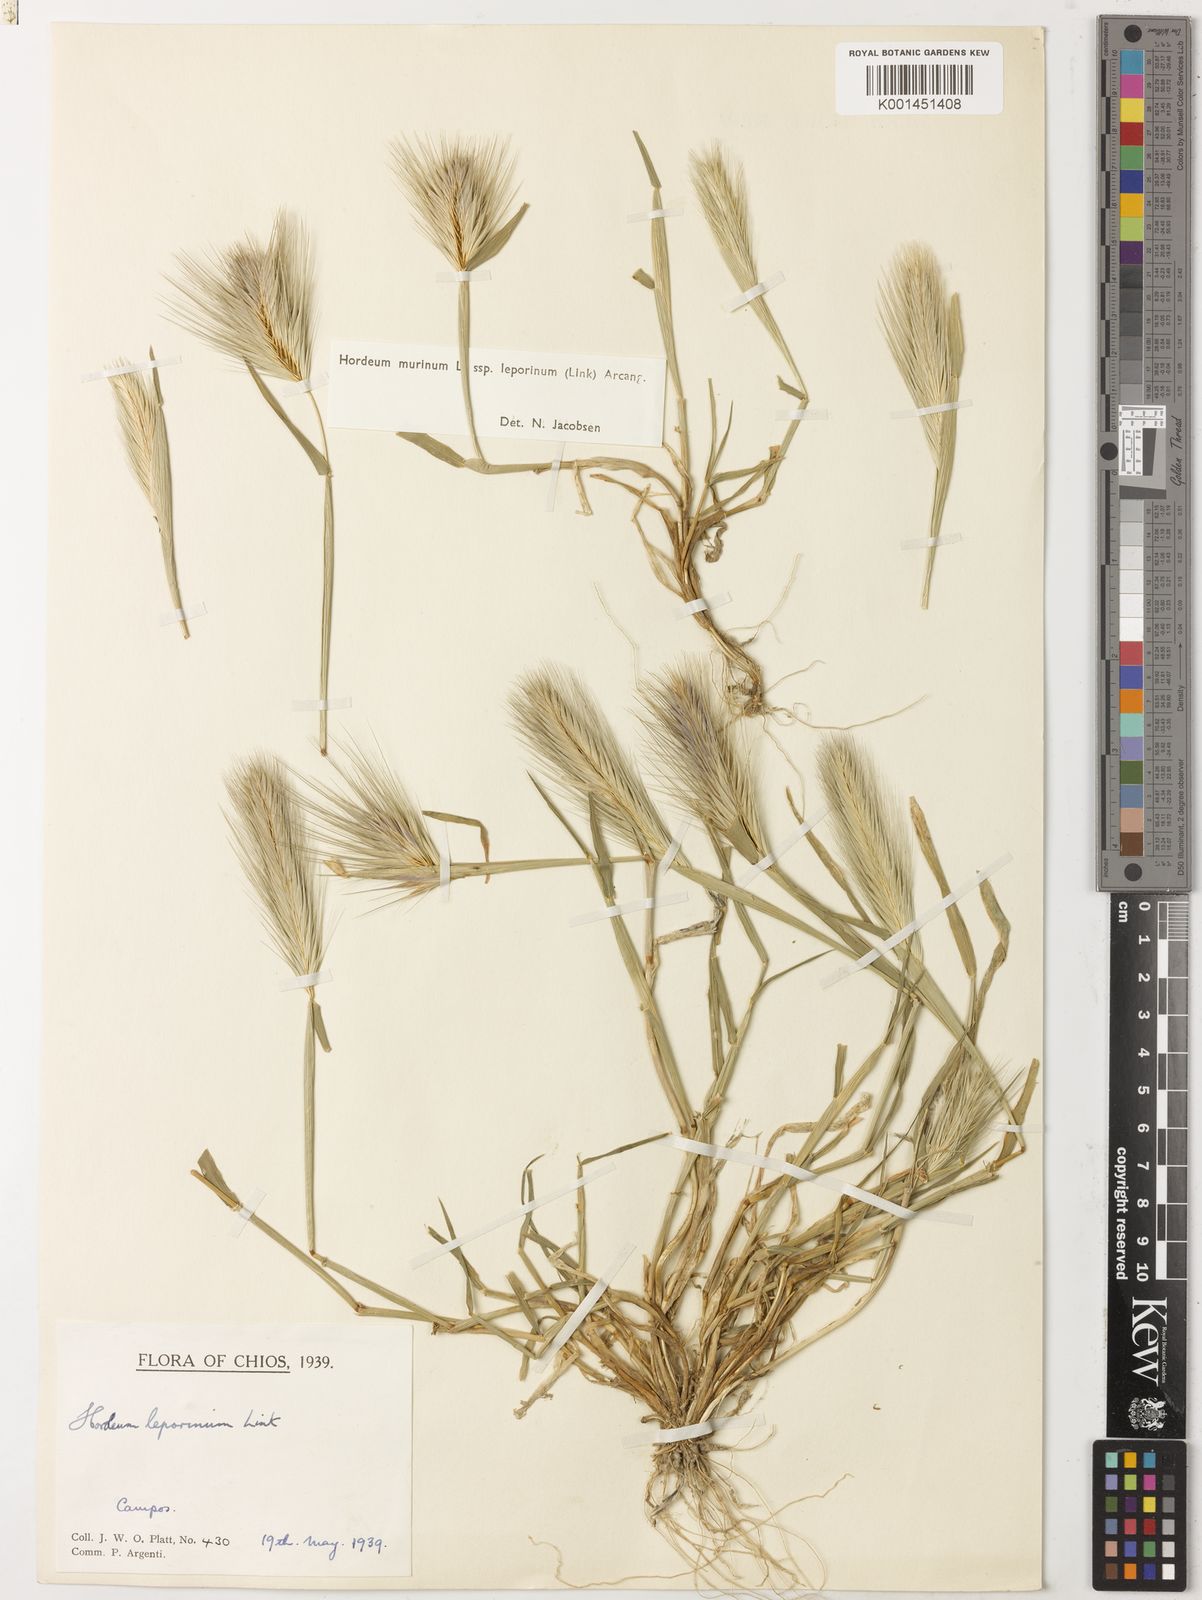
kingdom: Plantae
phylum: Tracheophyta
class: Liliopsida
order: Poales
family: Poaceae
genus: Hordeum
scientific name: Hordeum murinum
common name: Wall barley
